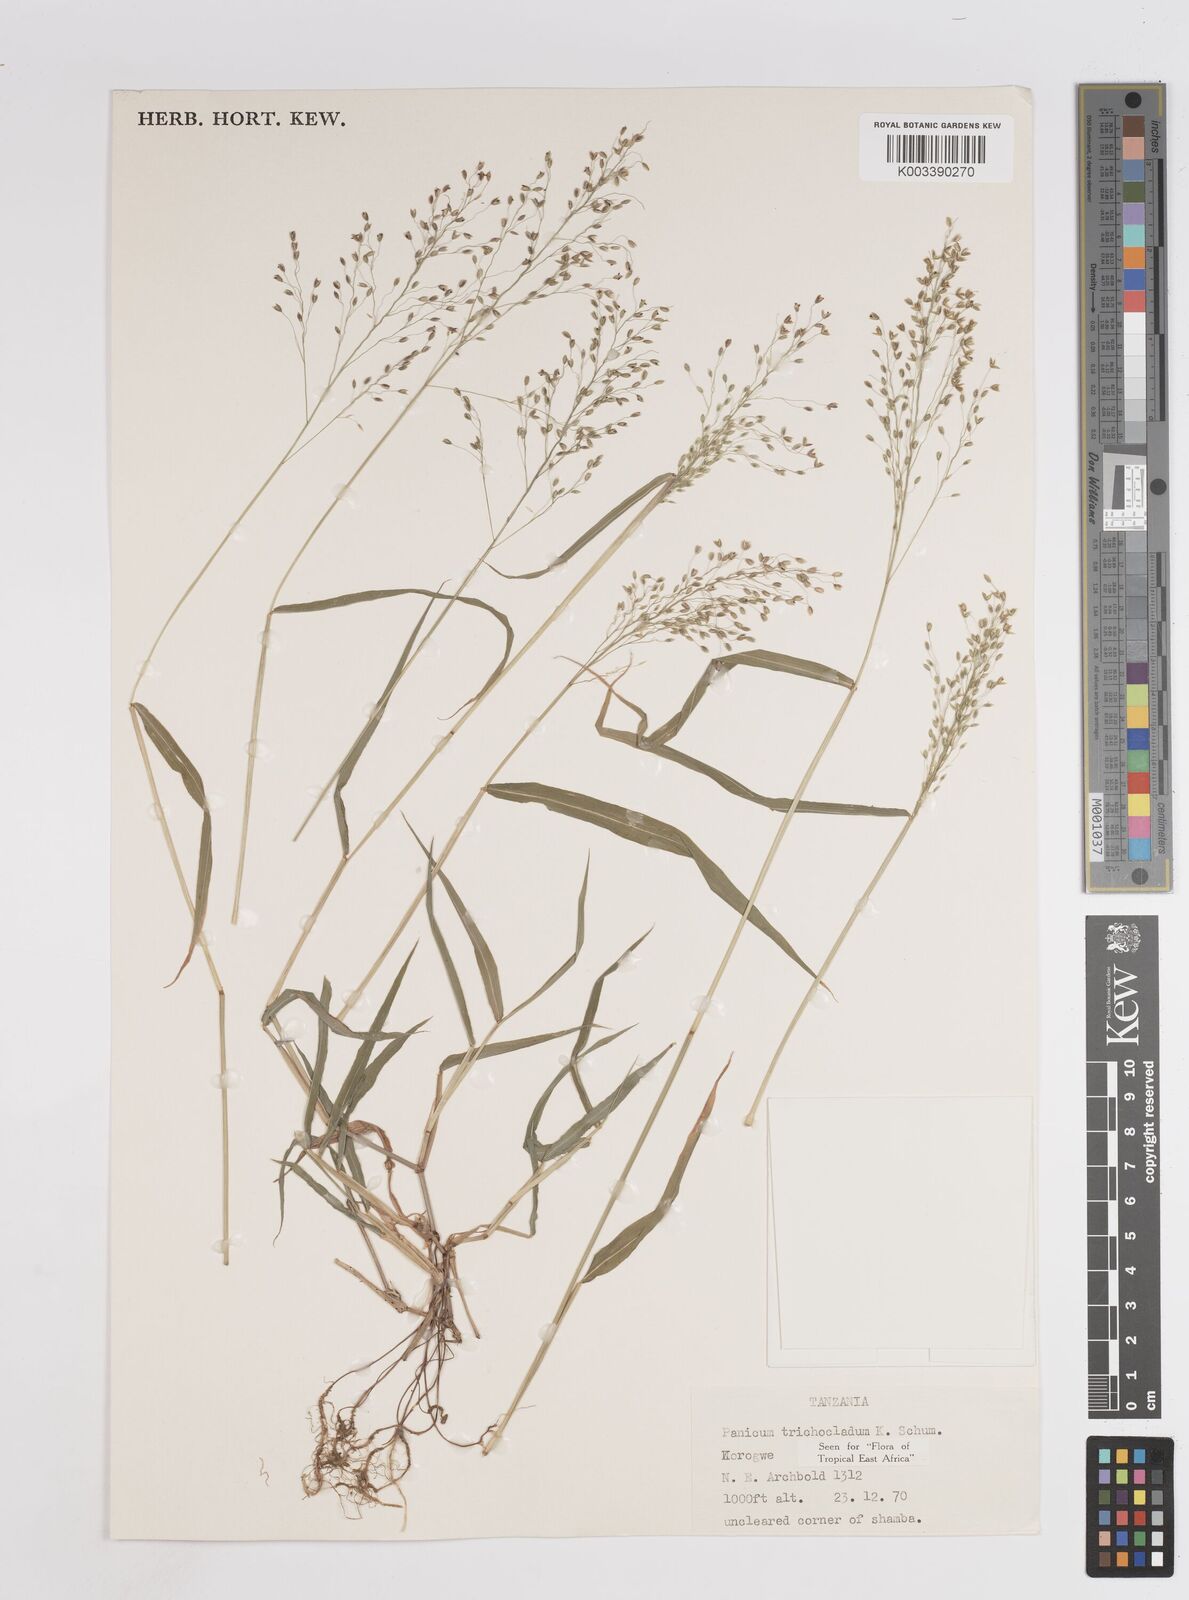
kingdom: Plantae
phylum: Tracheophyta
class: Liliopsida
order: Poales
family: Poaceae
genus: Panicum
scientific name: Panicum trichocladum
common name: Donkey grass
